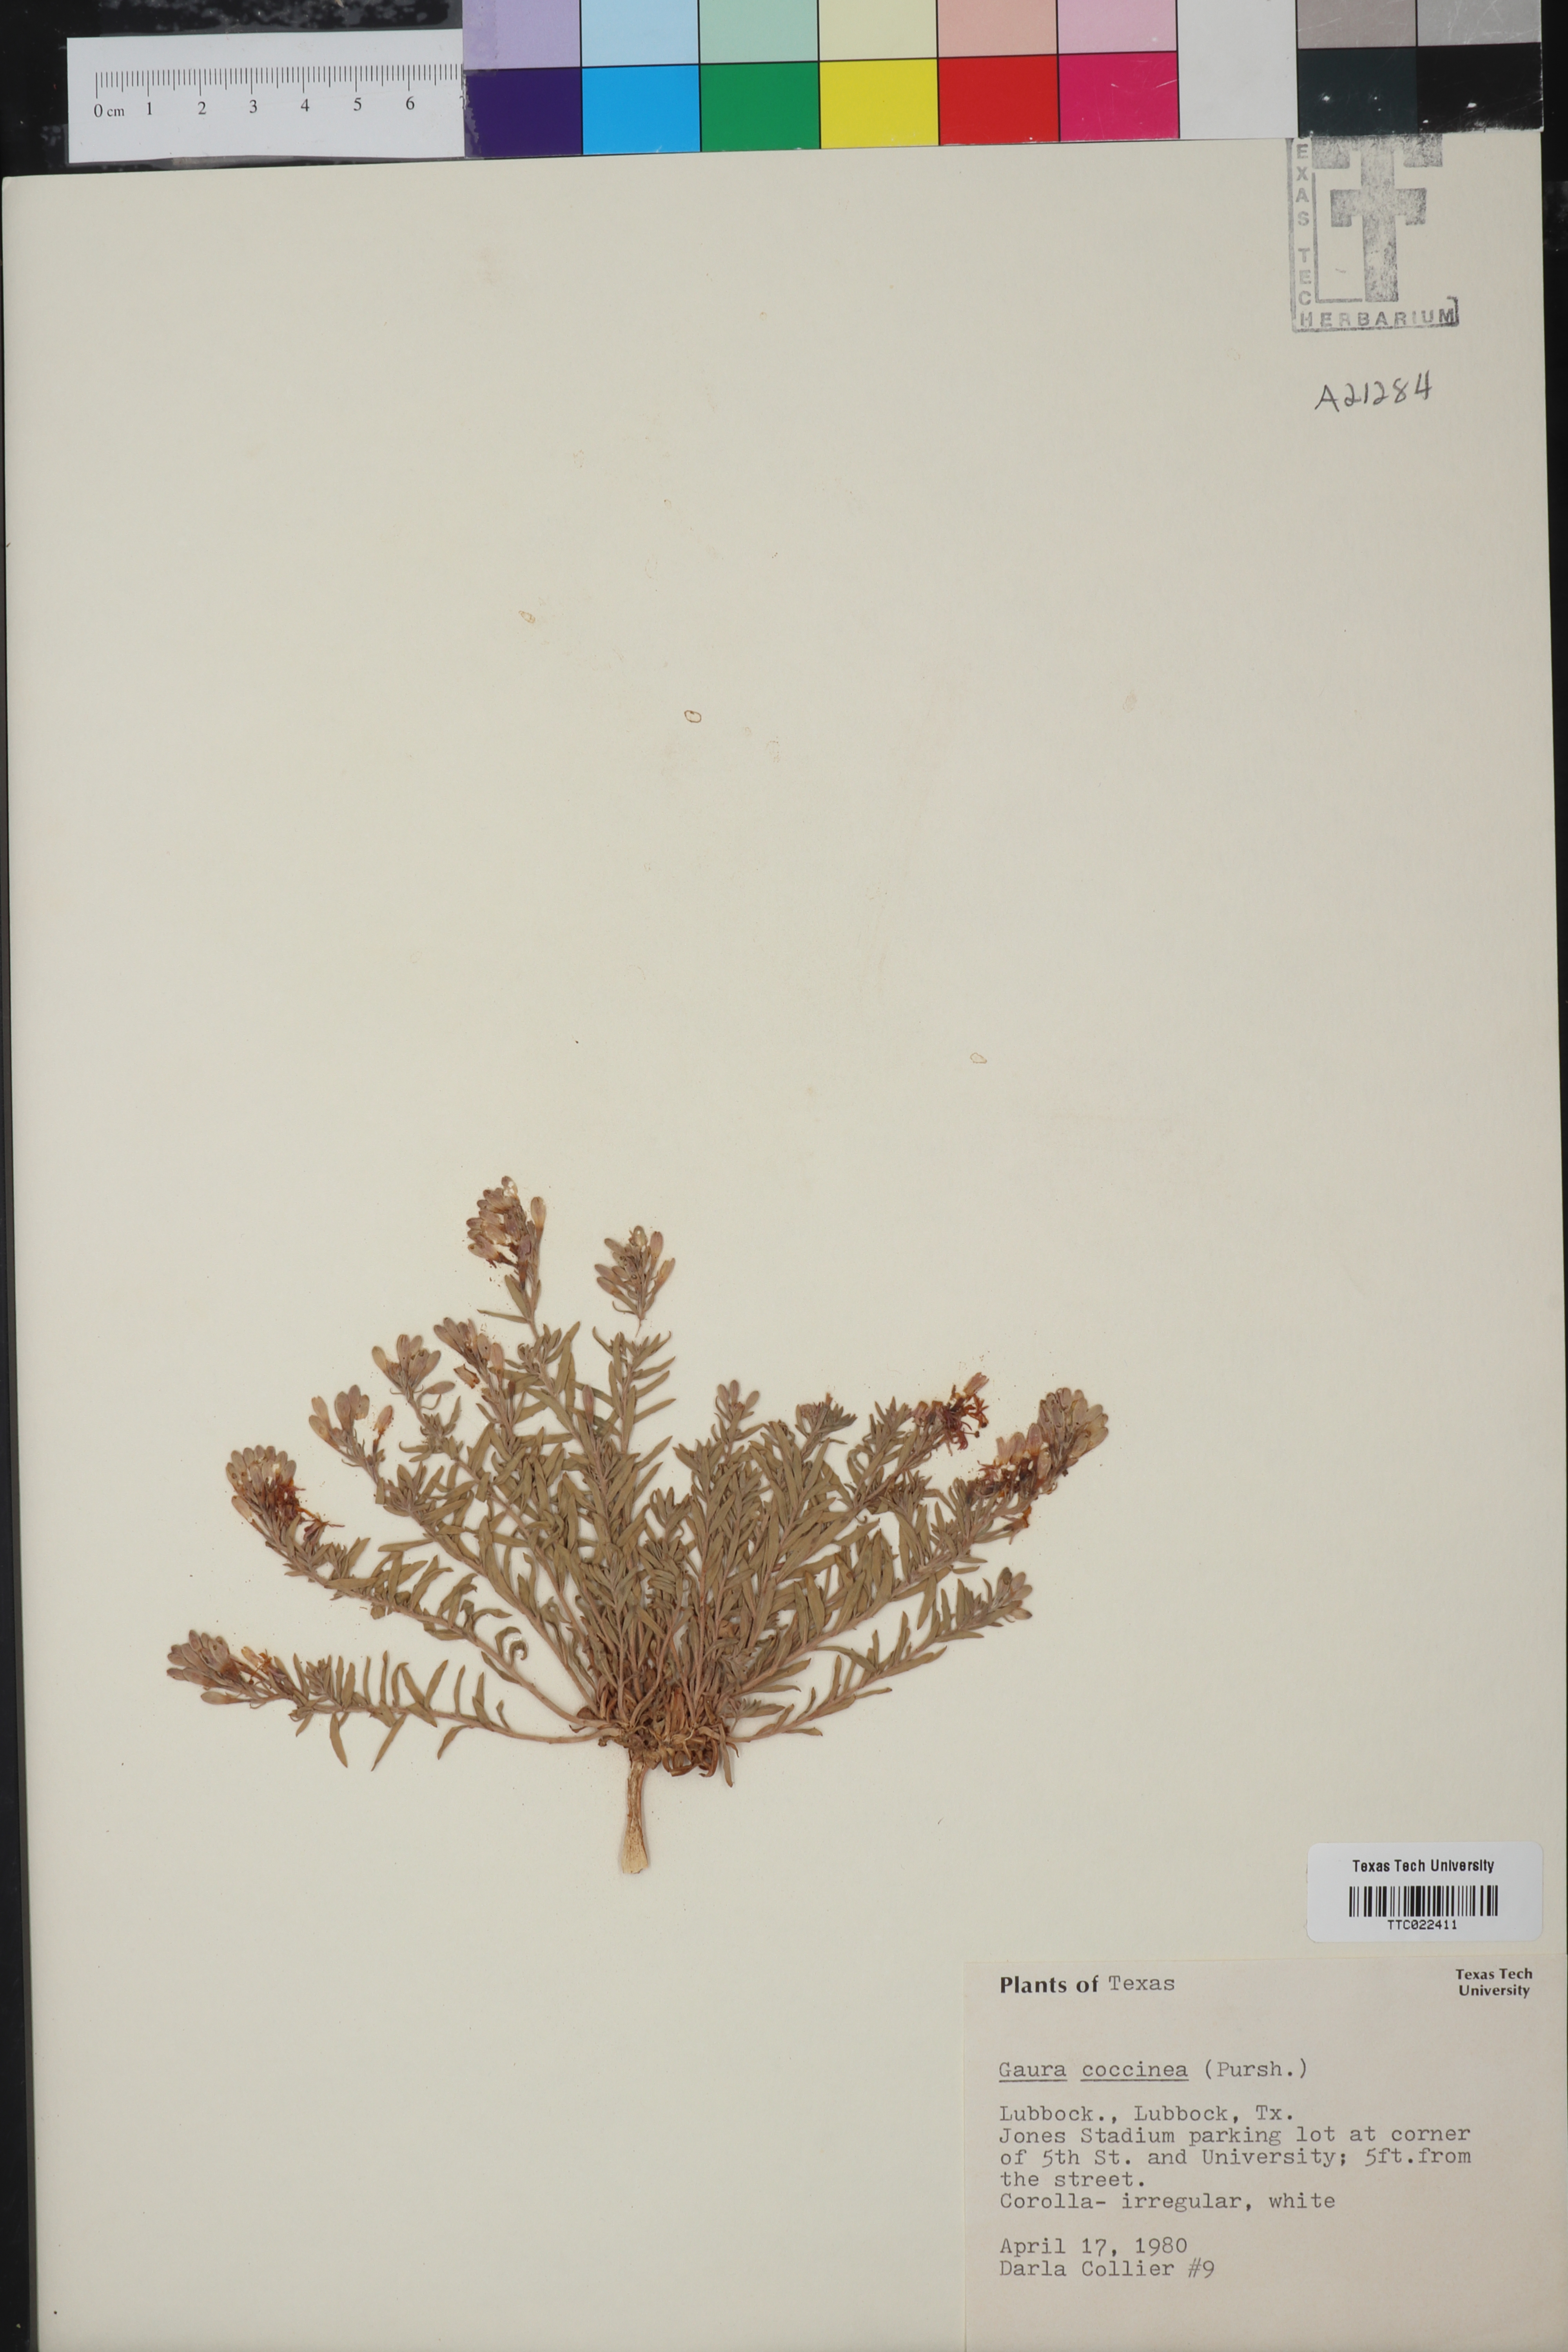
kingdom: Plantae
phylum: Tracheophyta
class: Magnoliopsida
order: Myrtales
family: Onagraceae
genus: Oenothera
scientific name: Oenothera suffrutescens
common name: Scarlet beeblossom
